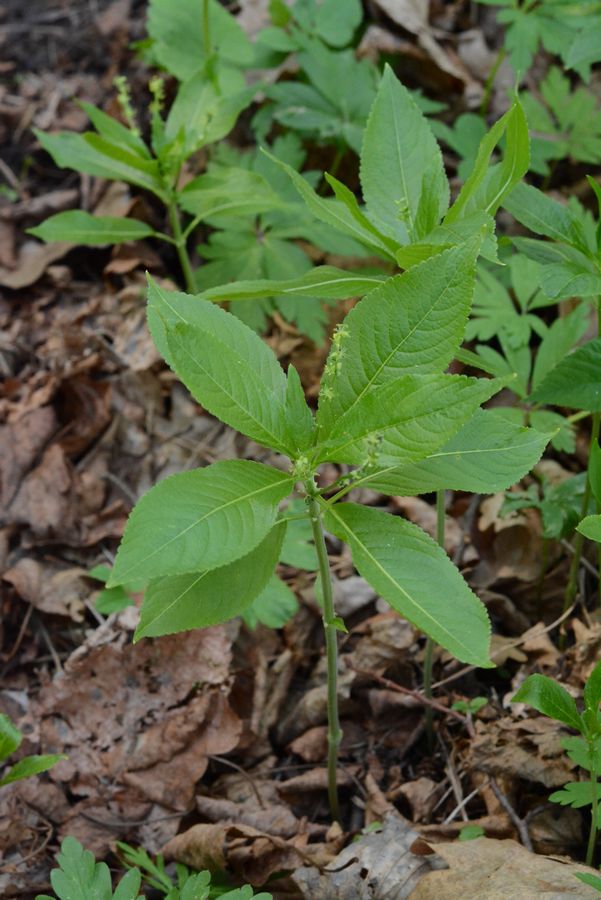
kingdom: Plantae
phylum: Tracheophyta
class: Magnoliopsida
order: Malpighiales
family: Euphorbiaceae
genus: Mercurialis
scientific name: Mercurialis perennis
